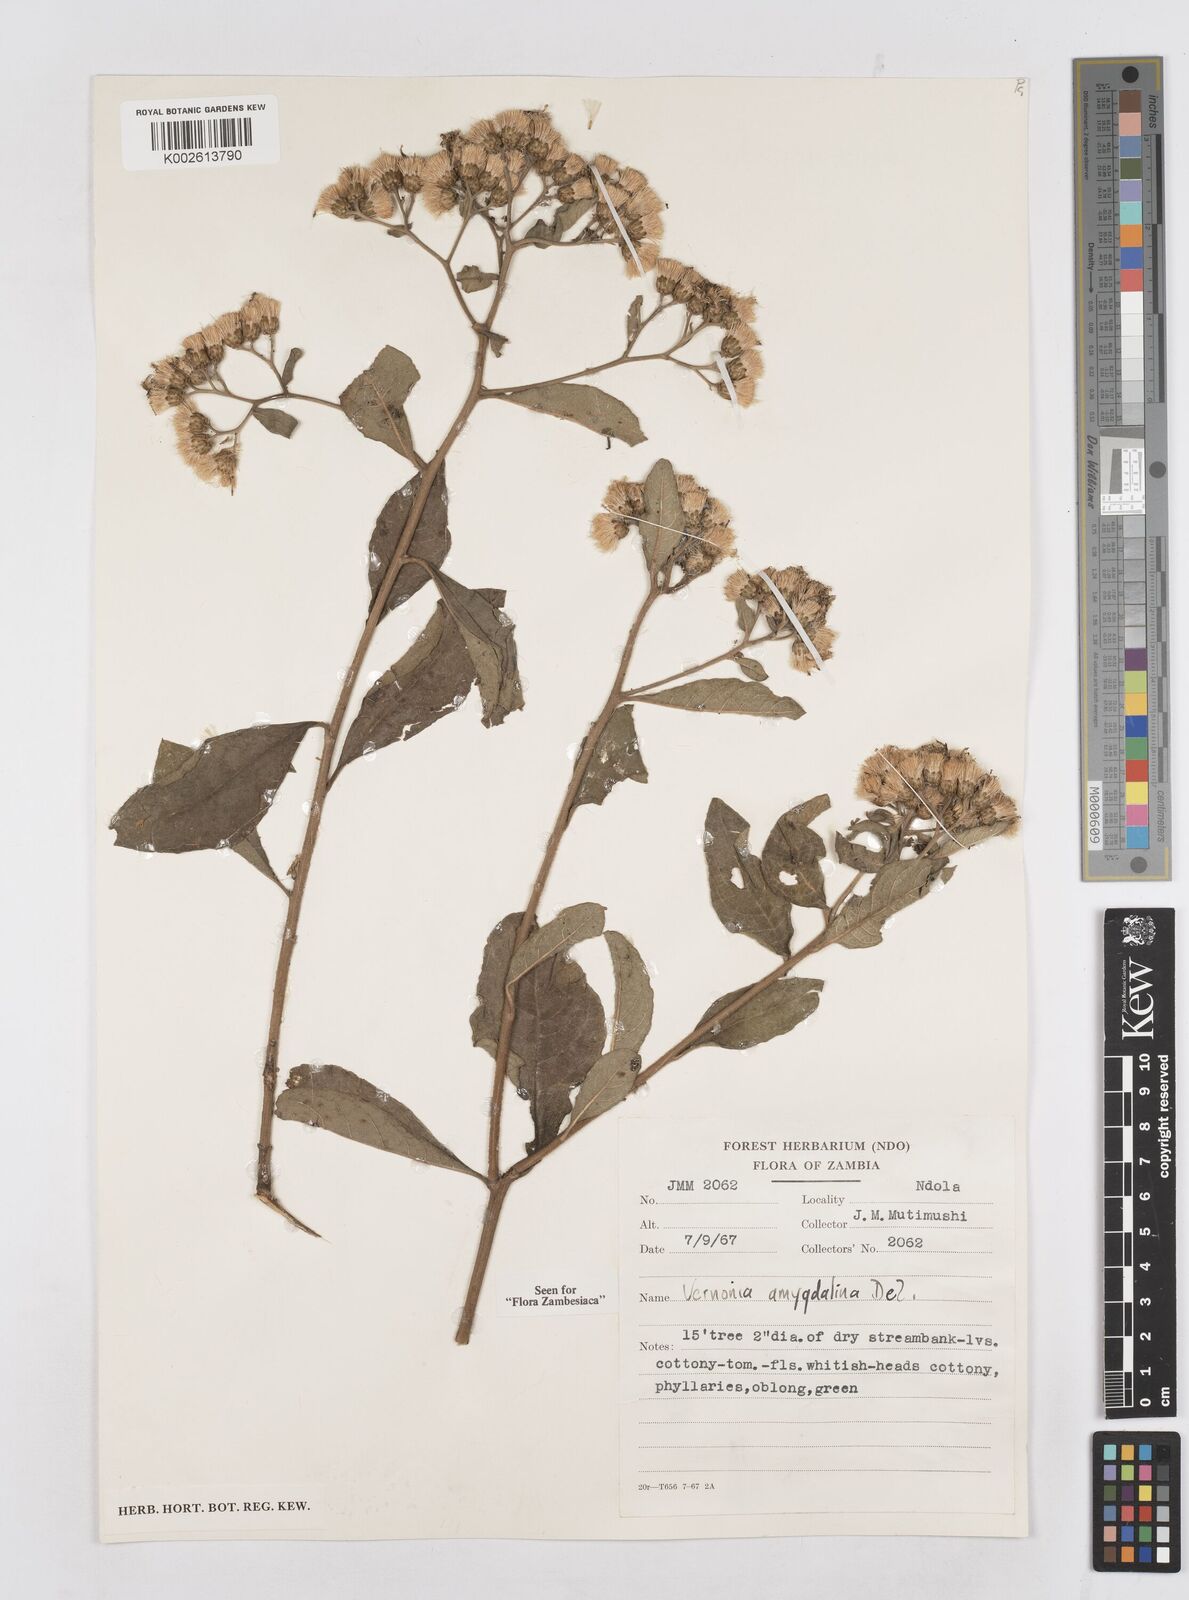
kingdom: Plantae
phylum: Tracheophyta
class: Magnoliopsida
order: Asterales
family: Asteraceae
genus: Gymnanthemum
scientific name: Gymnanthemum amygdalinum
